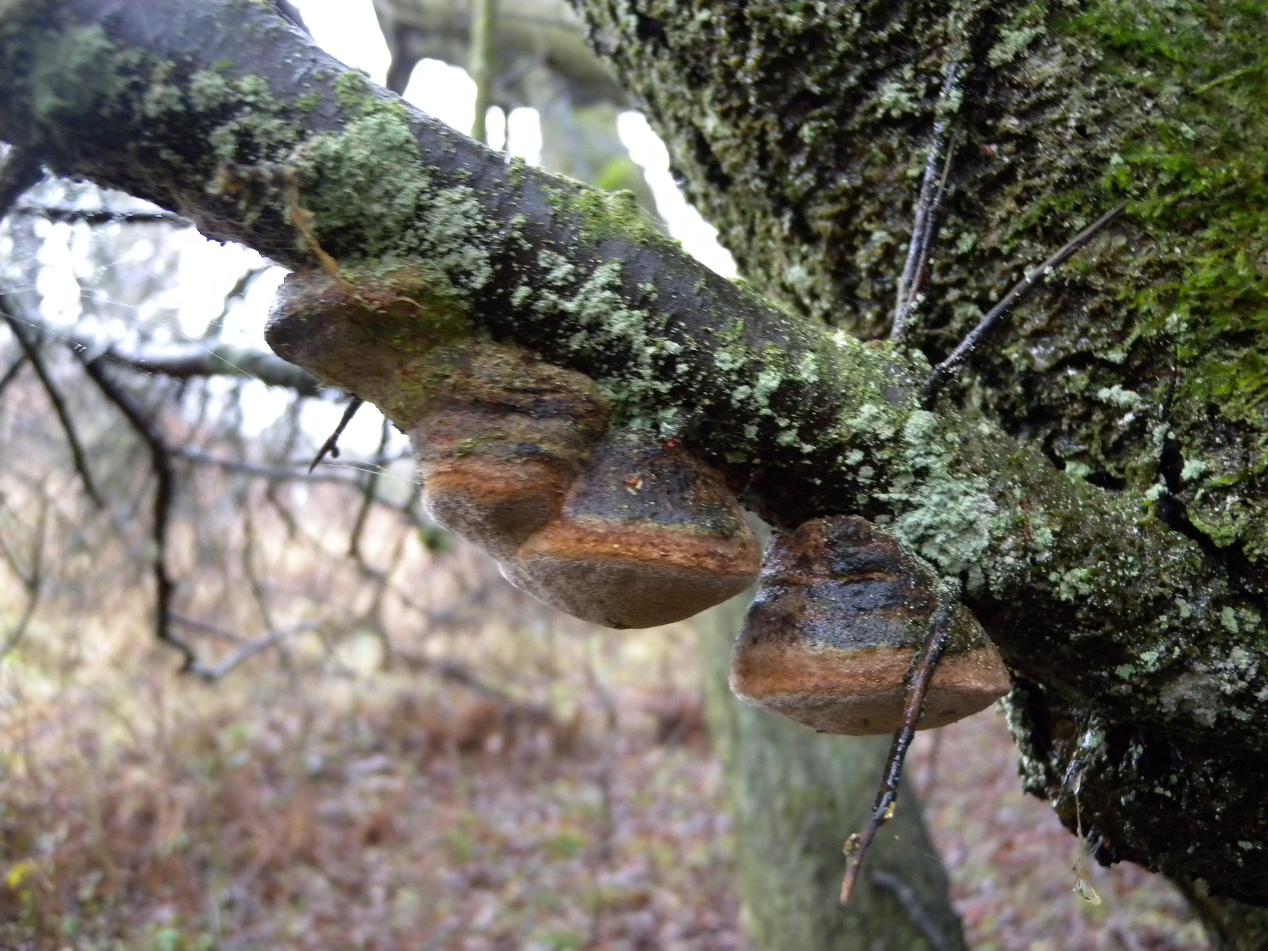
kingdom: Fungi
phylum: Basidiomycota
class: Agaricomycetes
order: Hymenochaetales
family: Hymenochaetaceae
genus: Phellinus
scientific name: Phellinus pomaceus
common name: blomme-ildporesvamp
